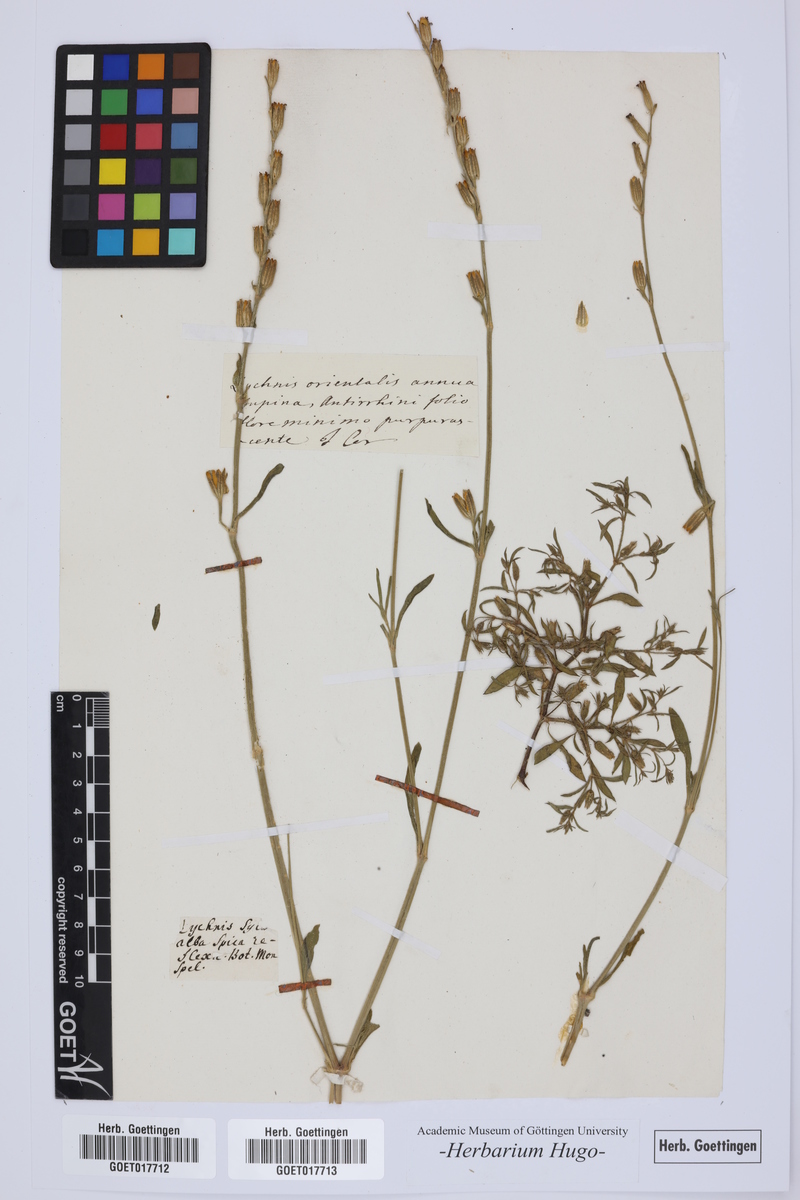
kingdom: Plantae
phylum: Tracheophyta
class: Magnoliopsida
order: Caryophyllales
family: Caryophyllaceae
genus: Silene
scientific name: Silene
